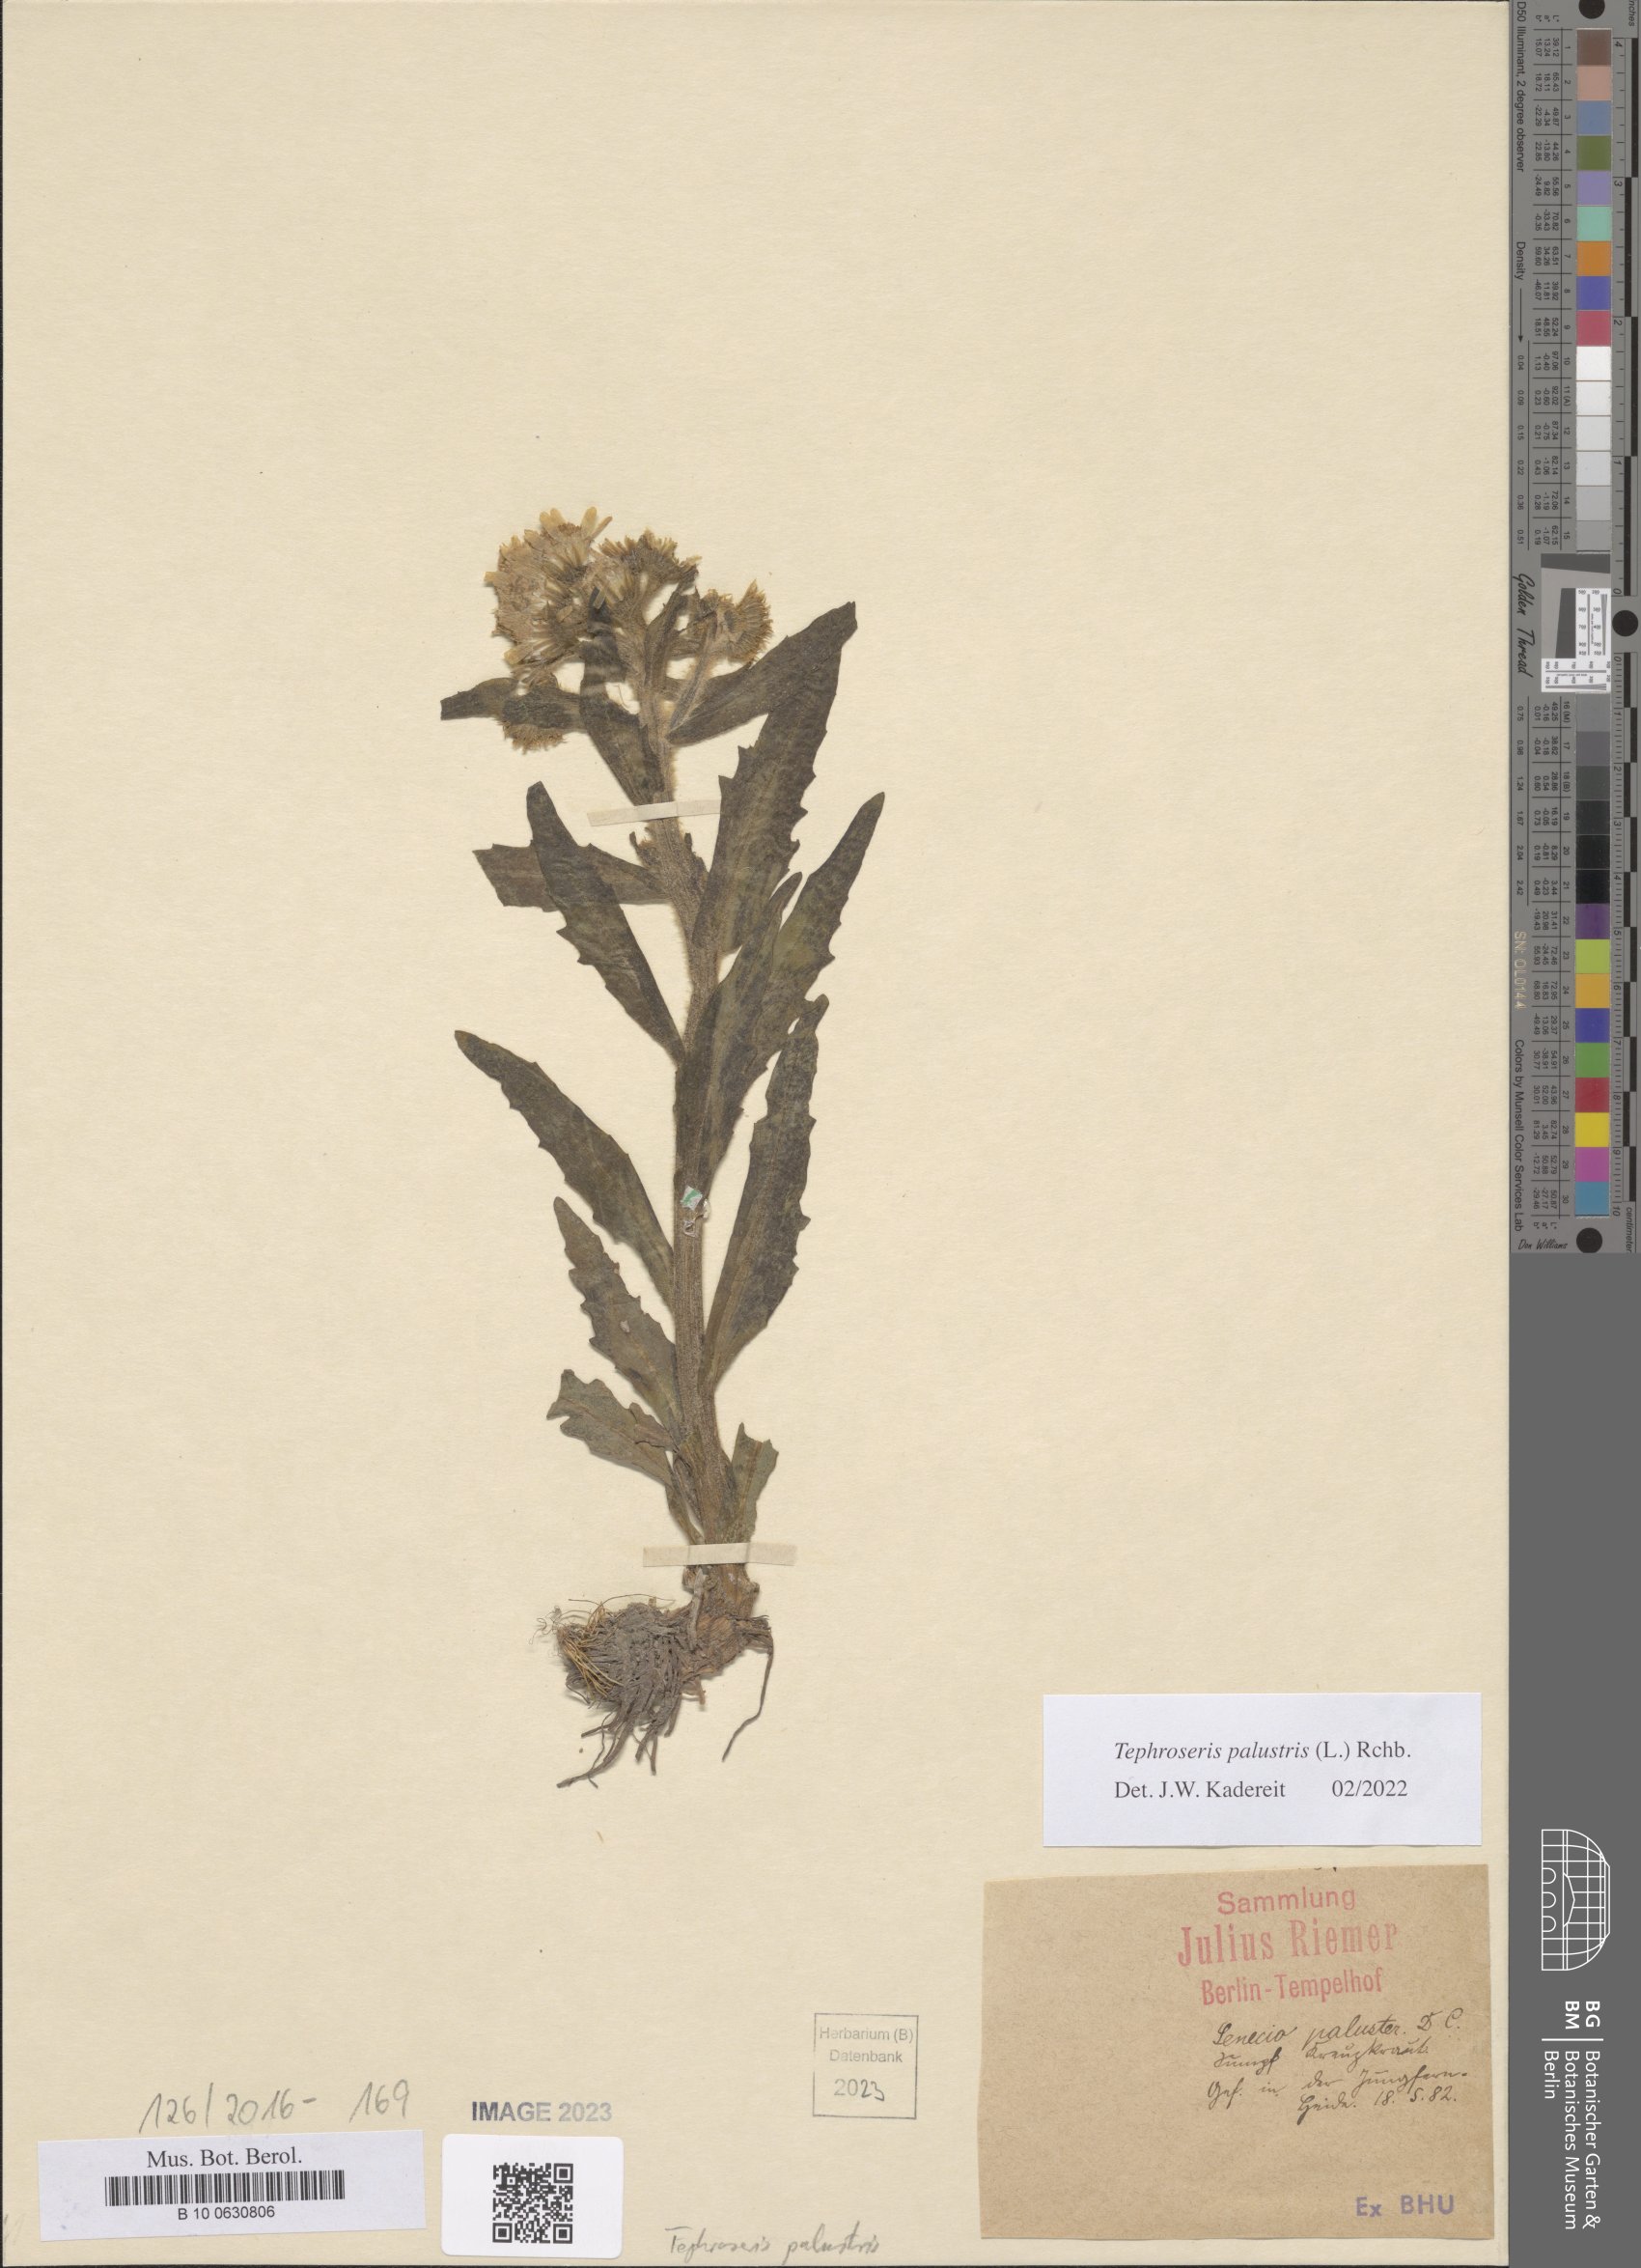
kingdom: Plantae
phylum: Tracheophyta
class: Magnoliopsida
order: Asterales
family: Asteraceae
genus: Tephroseris
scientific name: Tephroseris palustris
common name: Marsh fleawort
